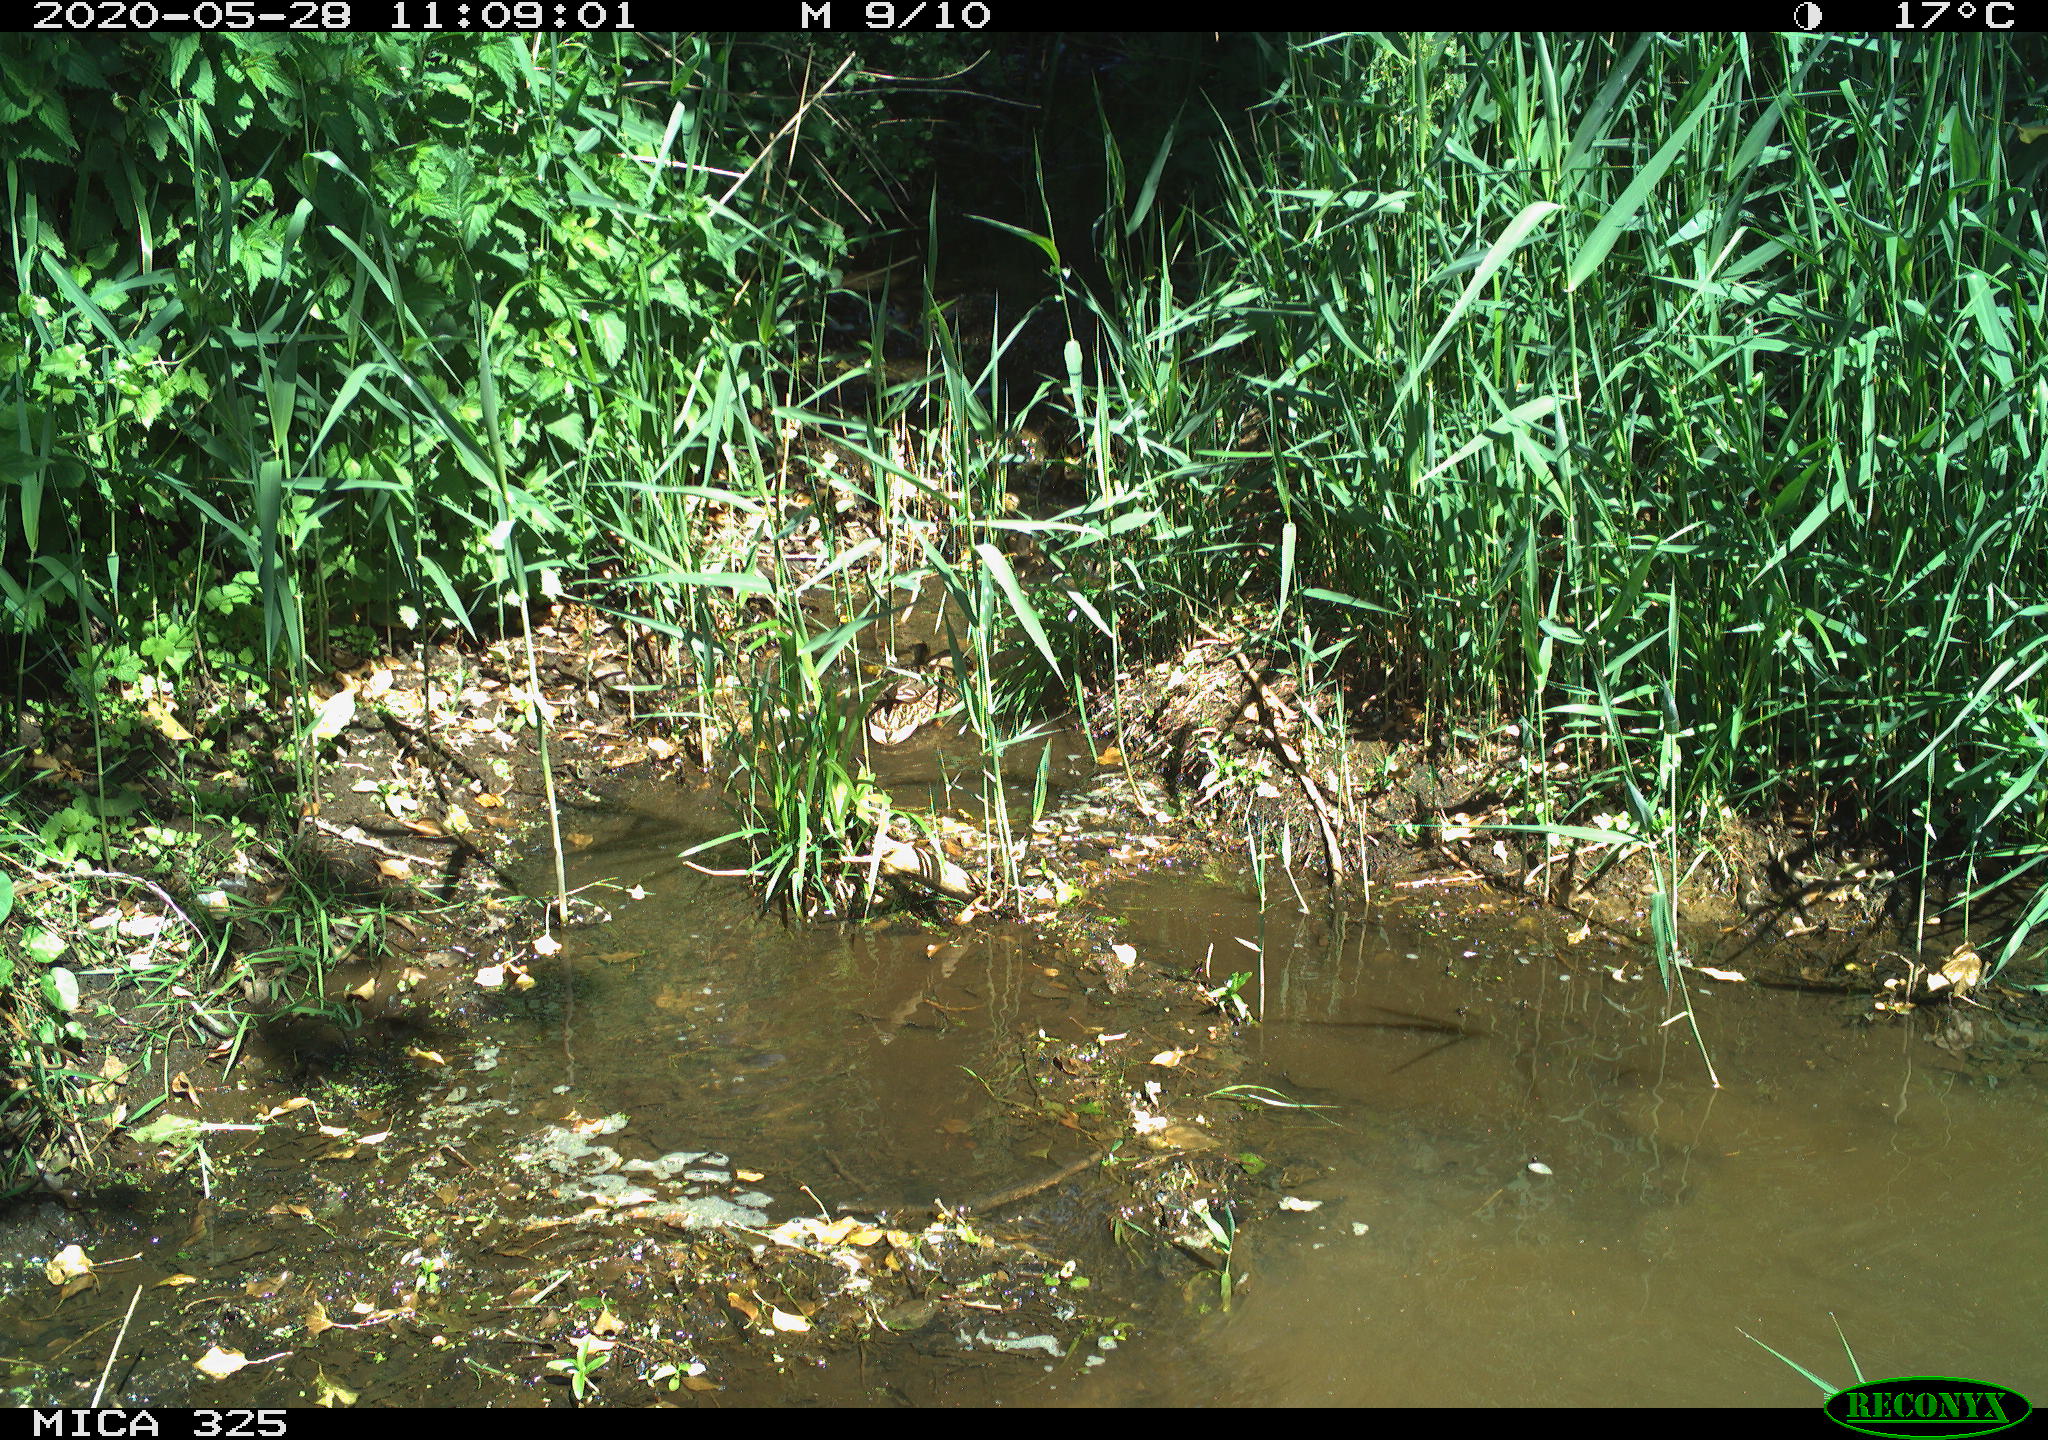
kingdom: Animalia
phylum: Chordata
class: Aves
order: Anseriformes
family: Anatidae
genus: Anas
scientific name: Anas platyrhynchos
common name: Mallard
